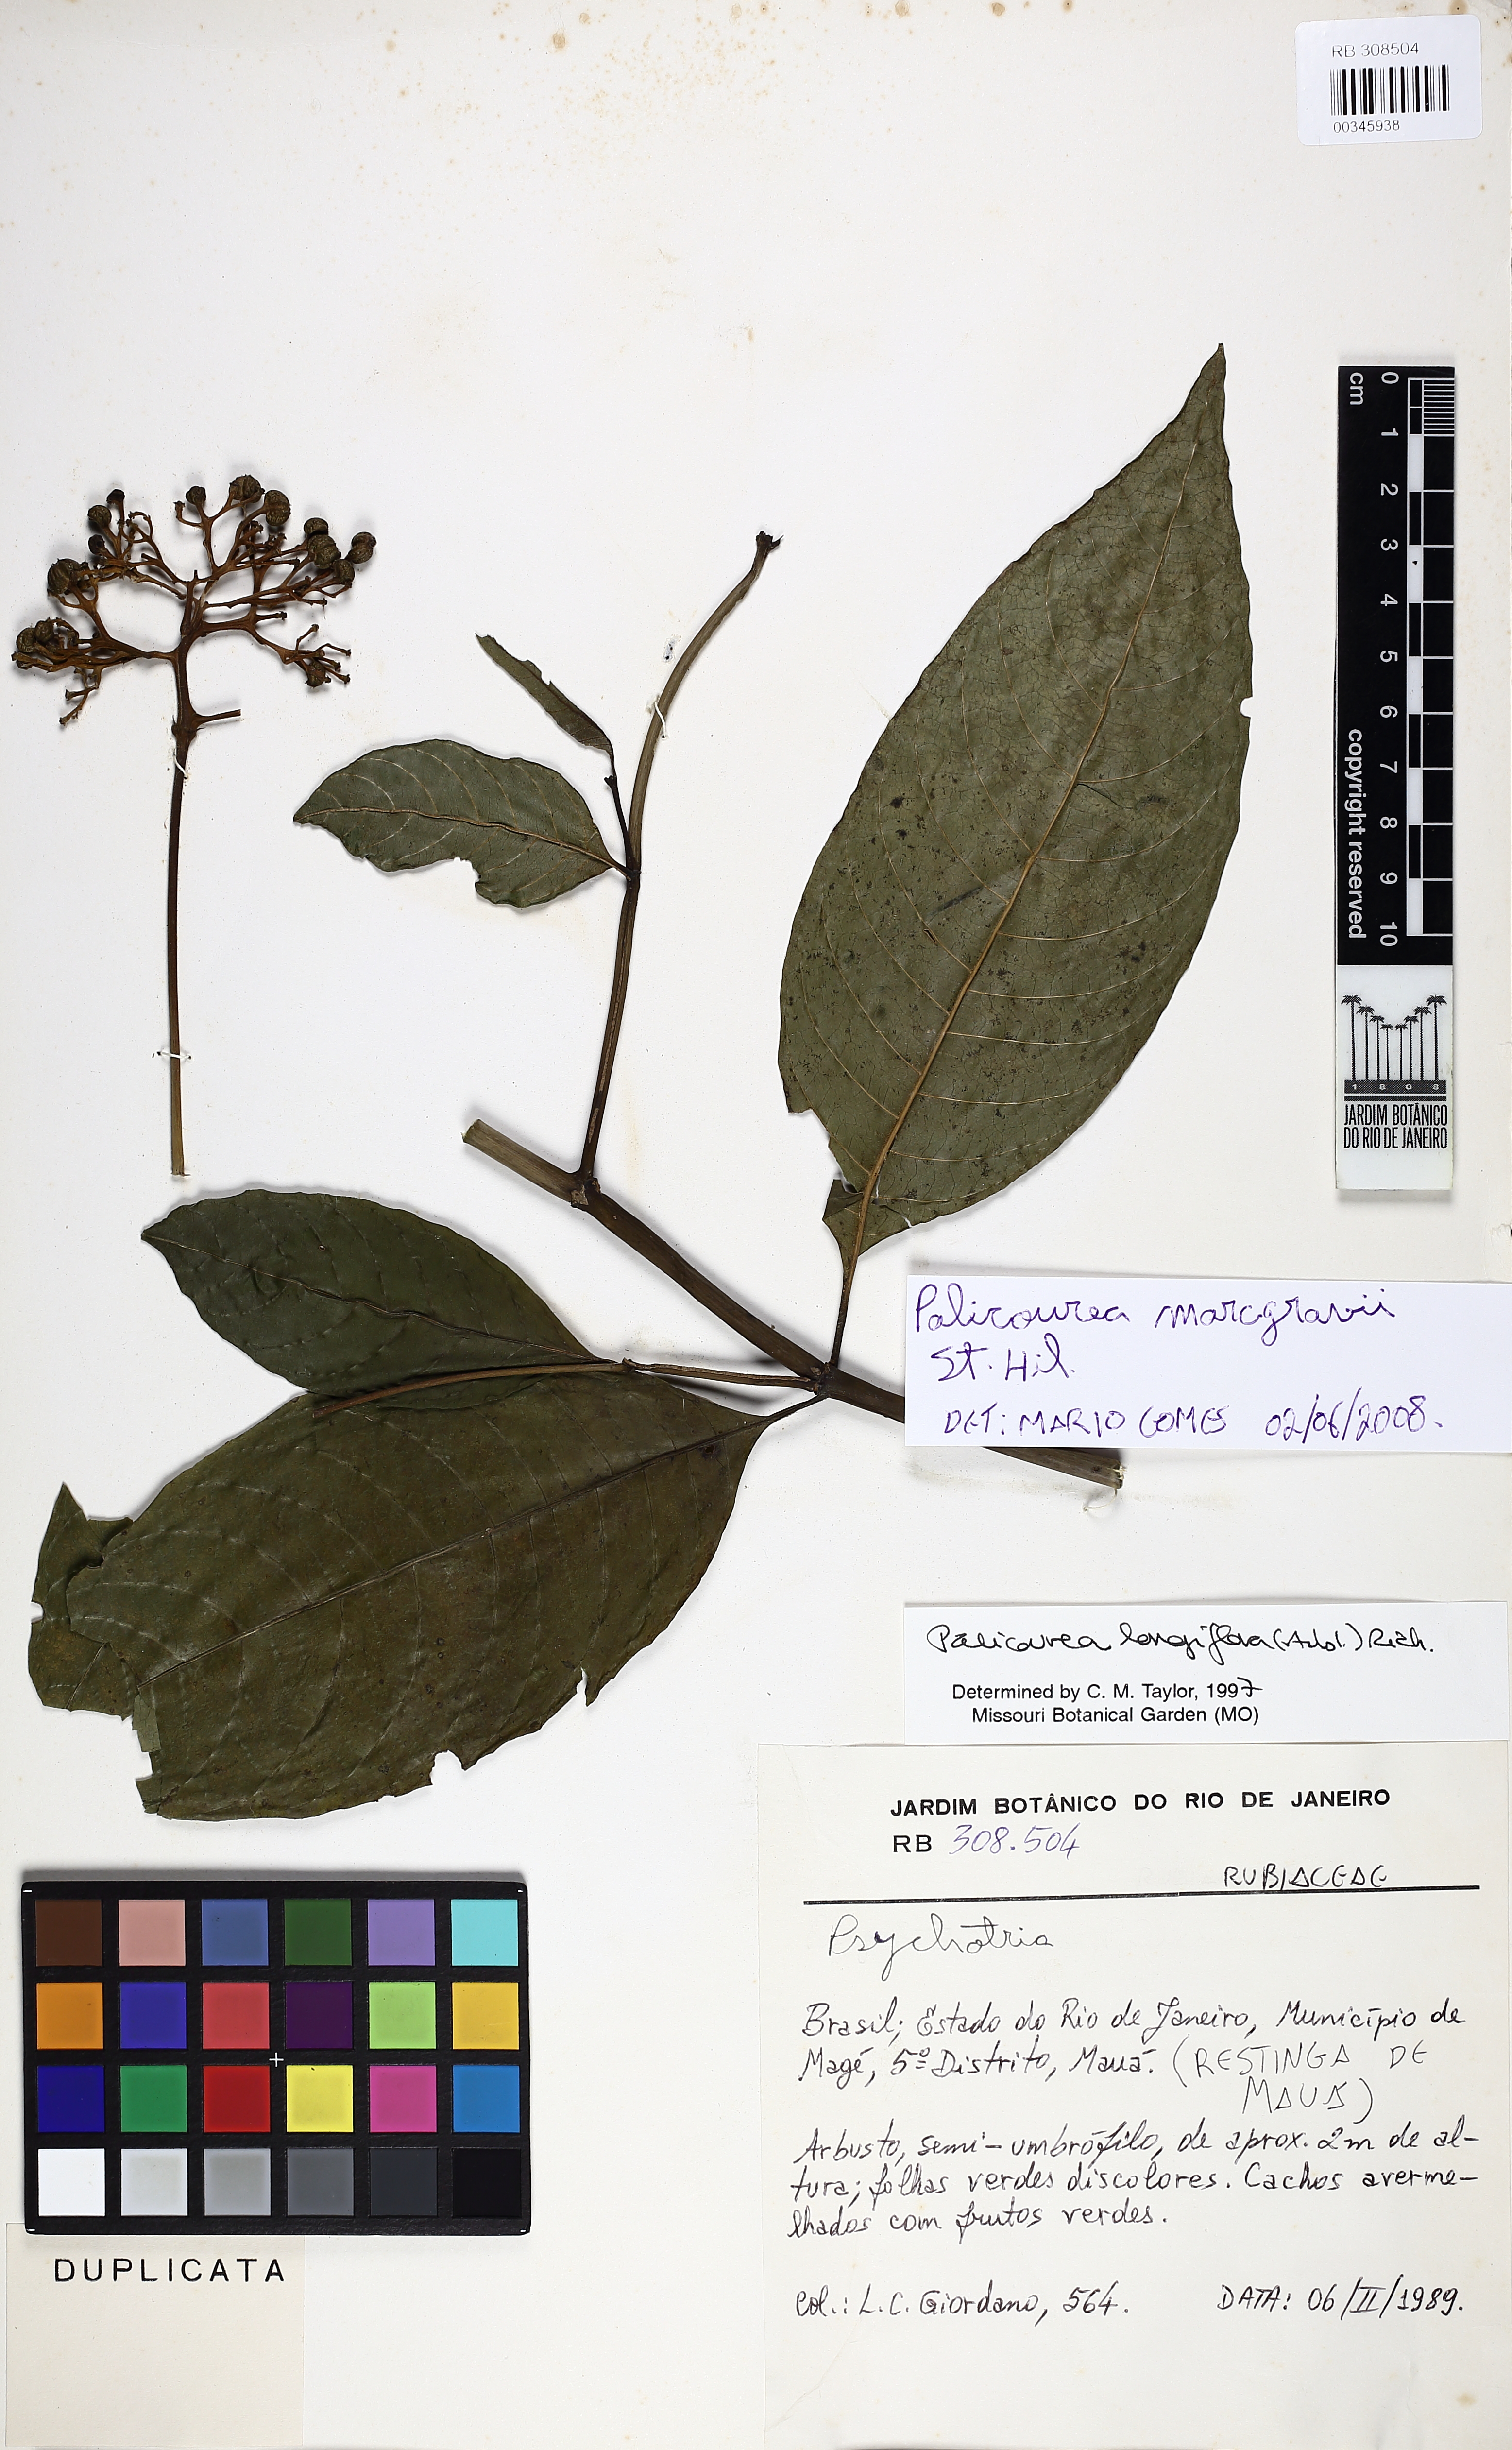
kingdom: Plantae
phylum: Tracheophyta
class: Magnoliopsida
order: Gentianales
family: Rubiaceae
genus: Palicourea
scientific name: Palicourea marcgravii
